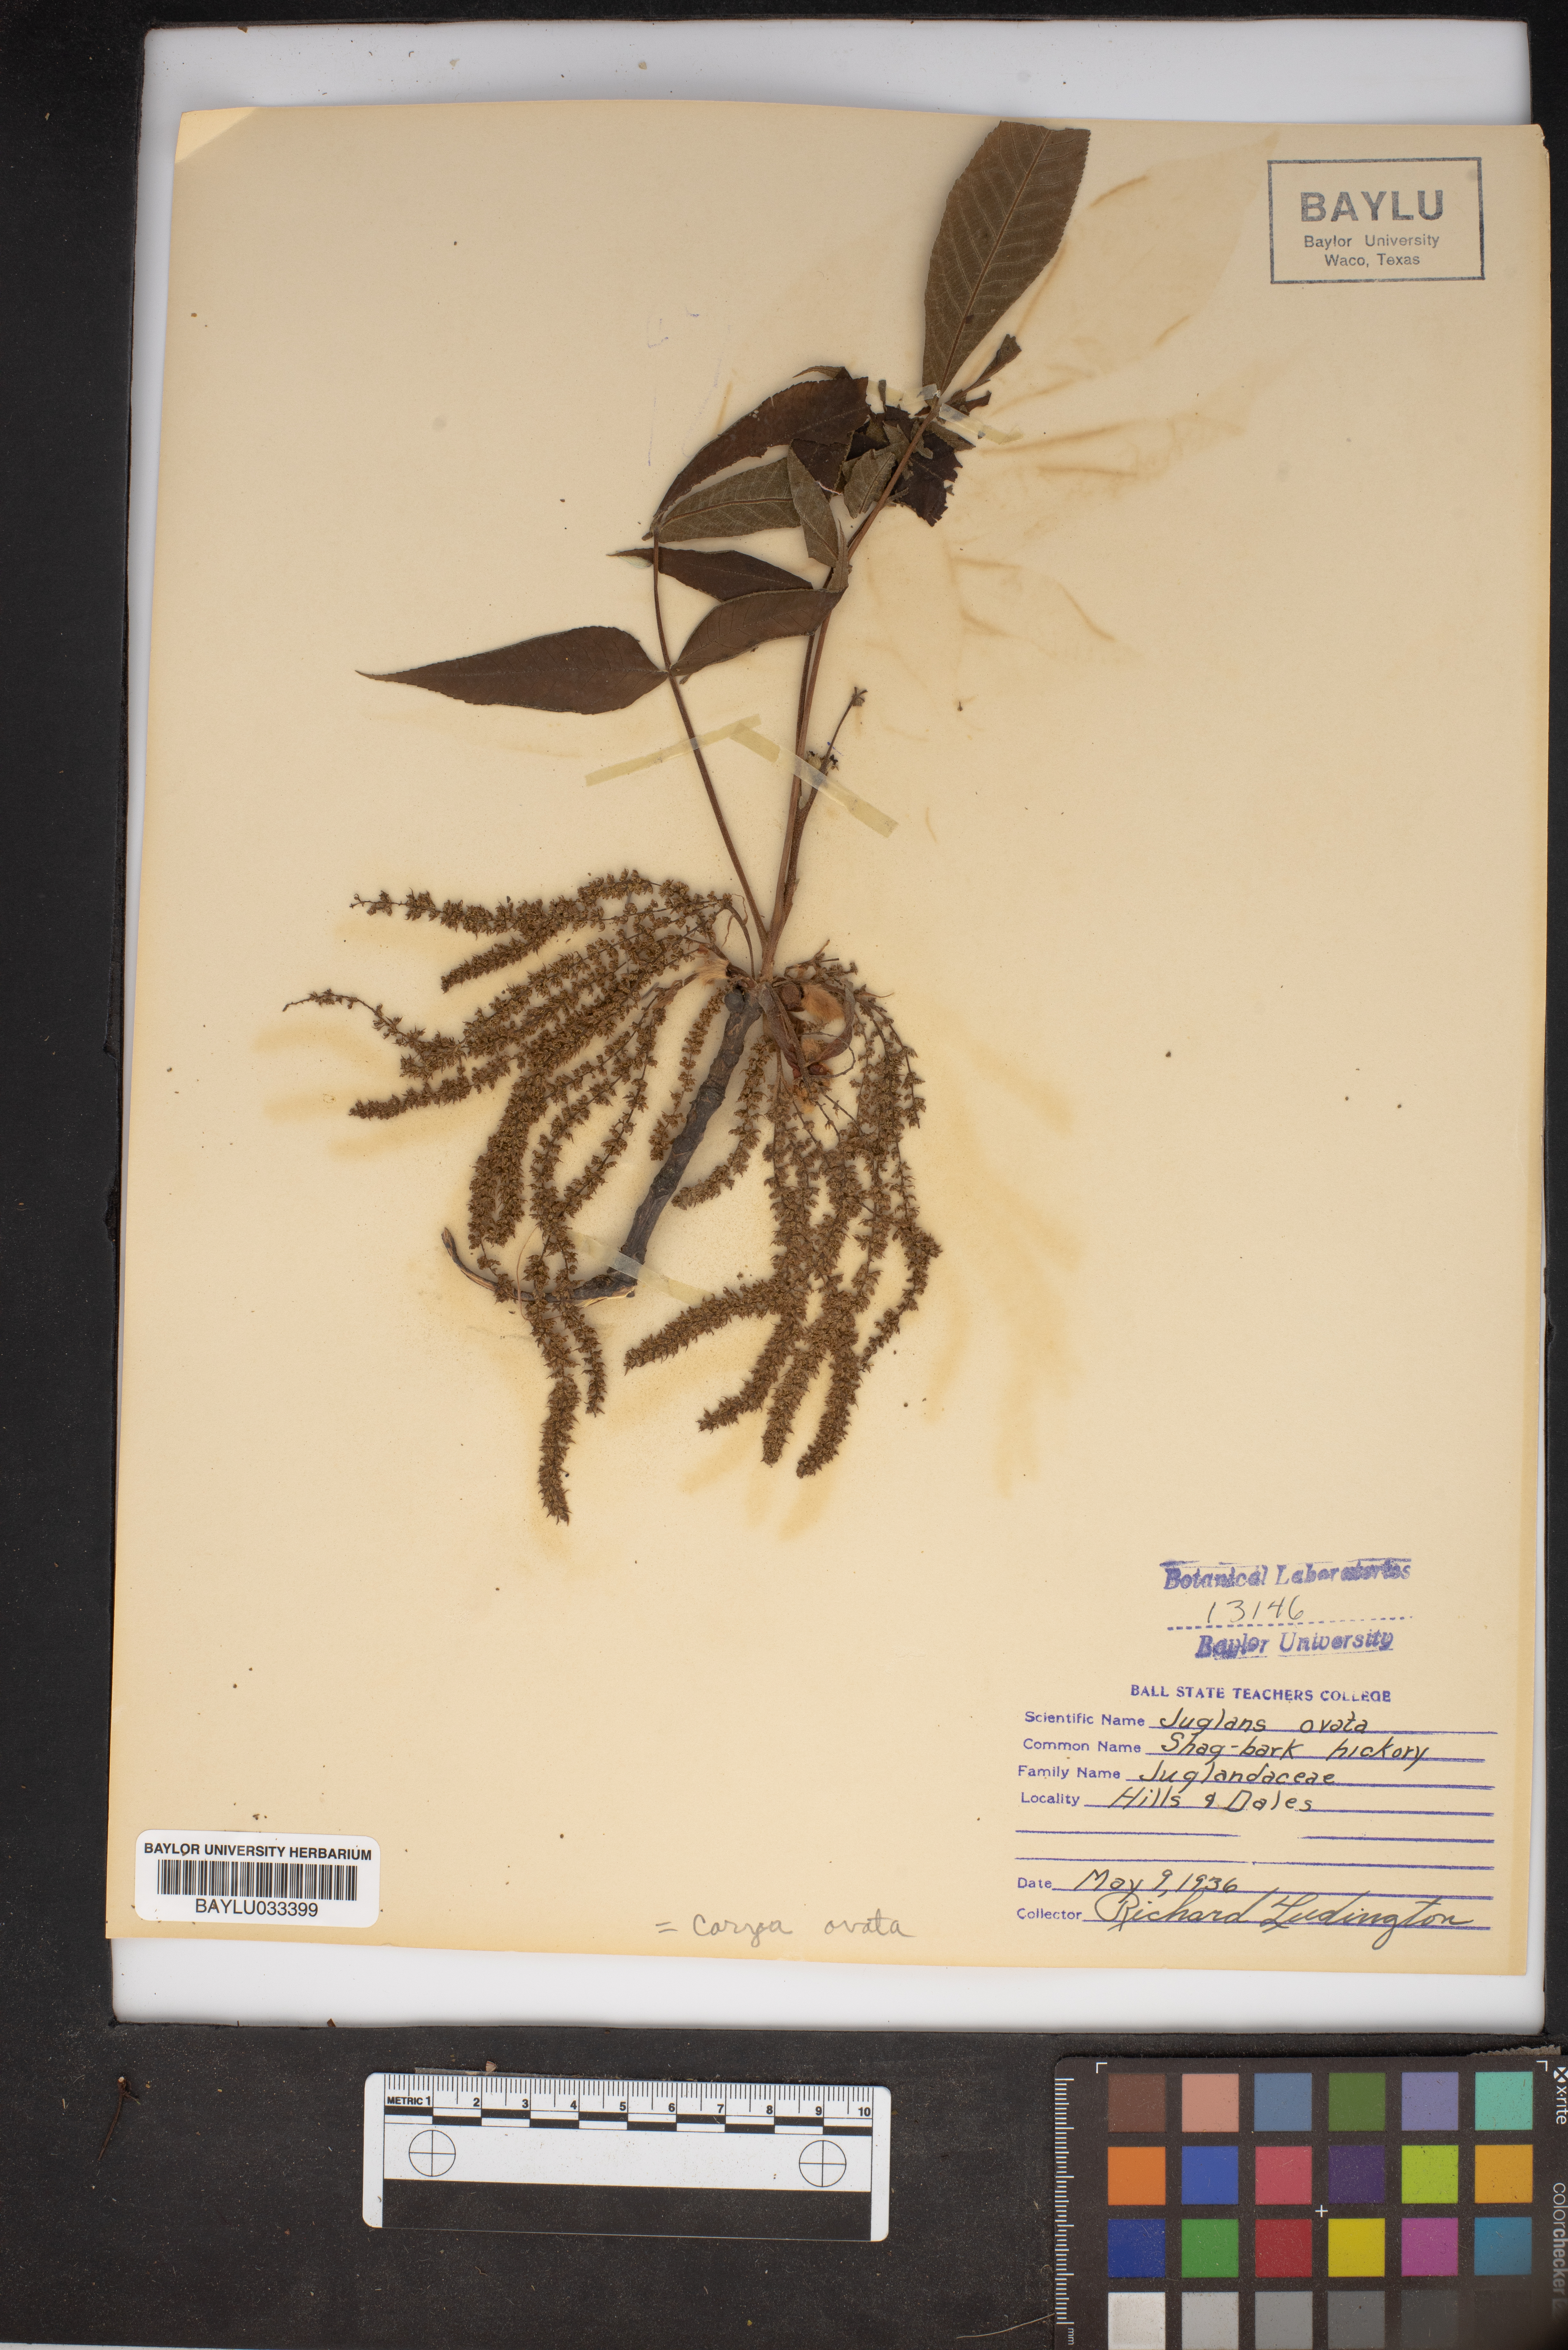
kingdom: Plantae
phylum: Tracheophyta
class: Magnoliopsida
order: Fagales
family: Juglandaceae
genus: Carya
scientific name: Carya ovata
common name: Shagbark hickory
